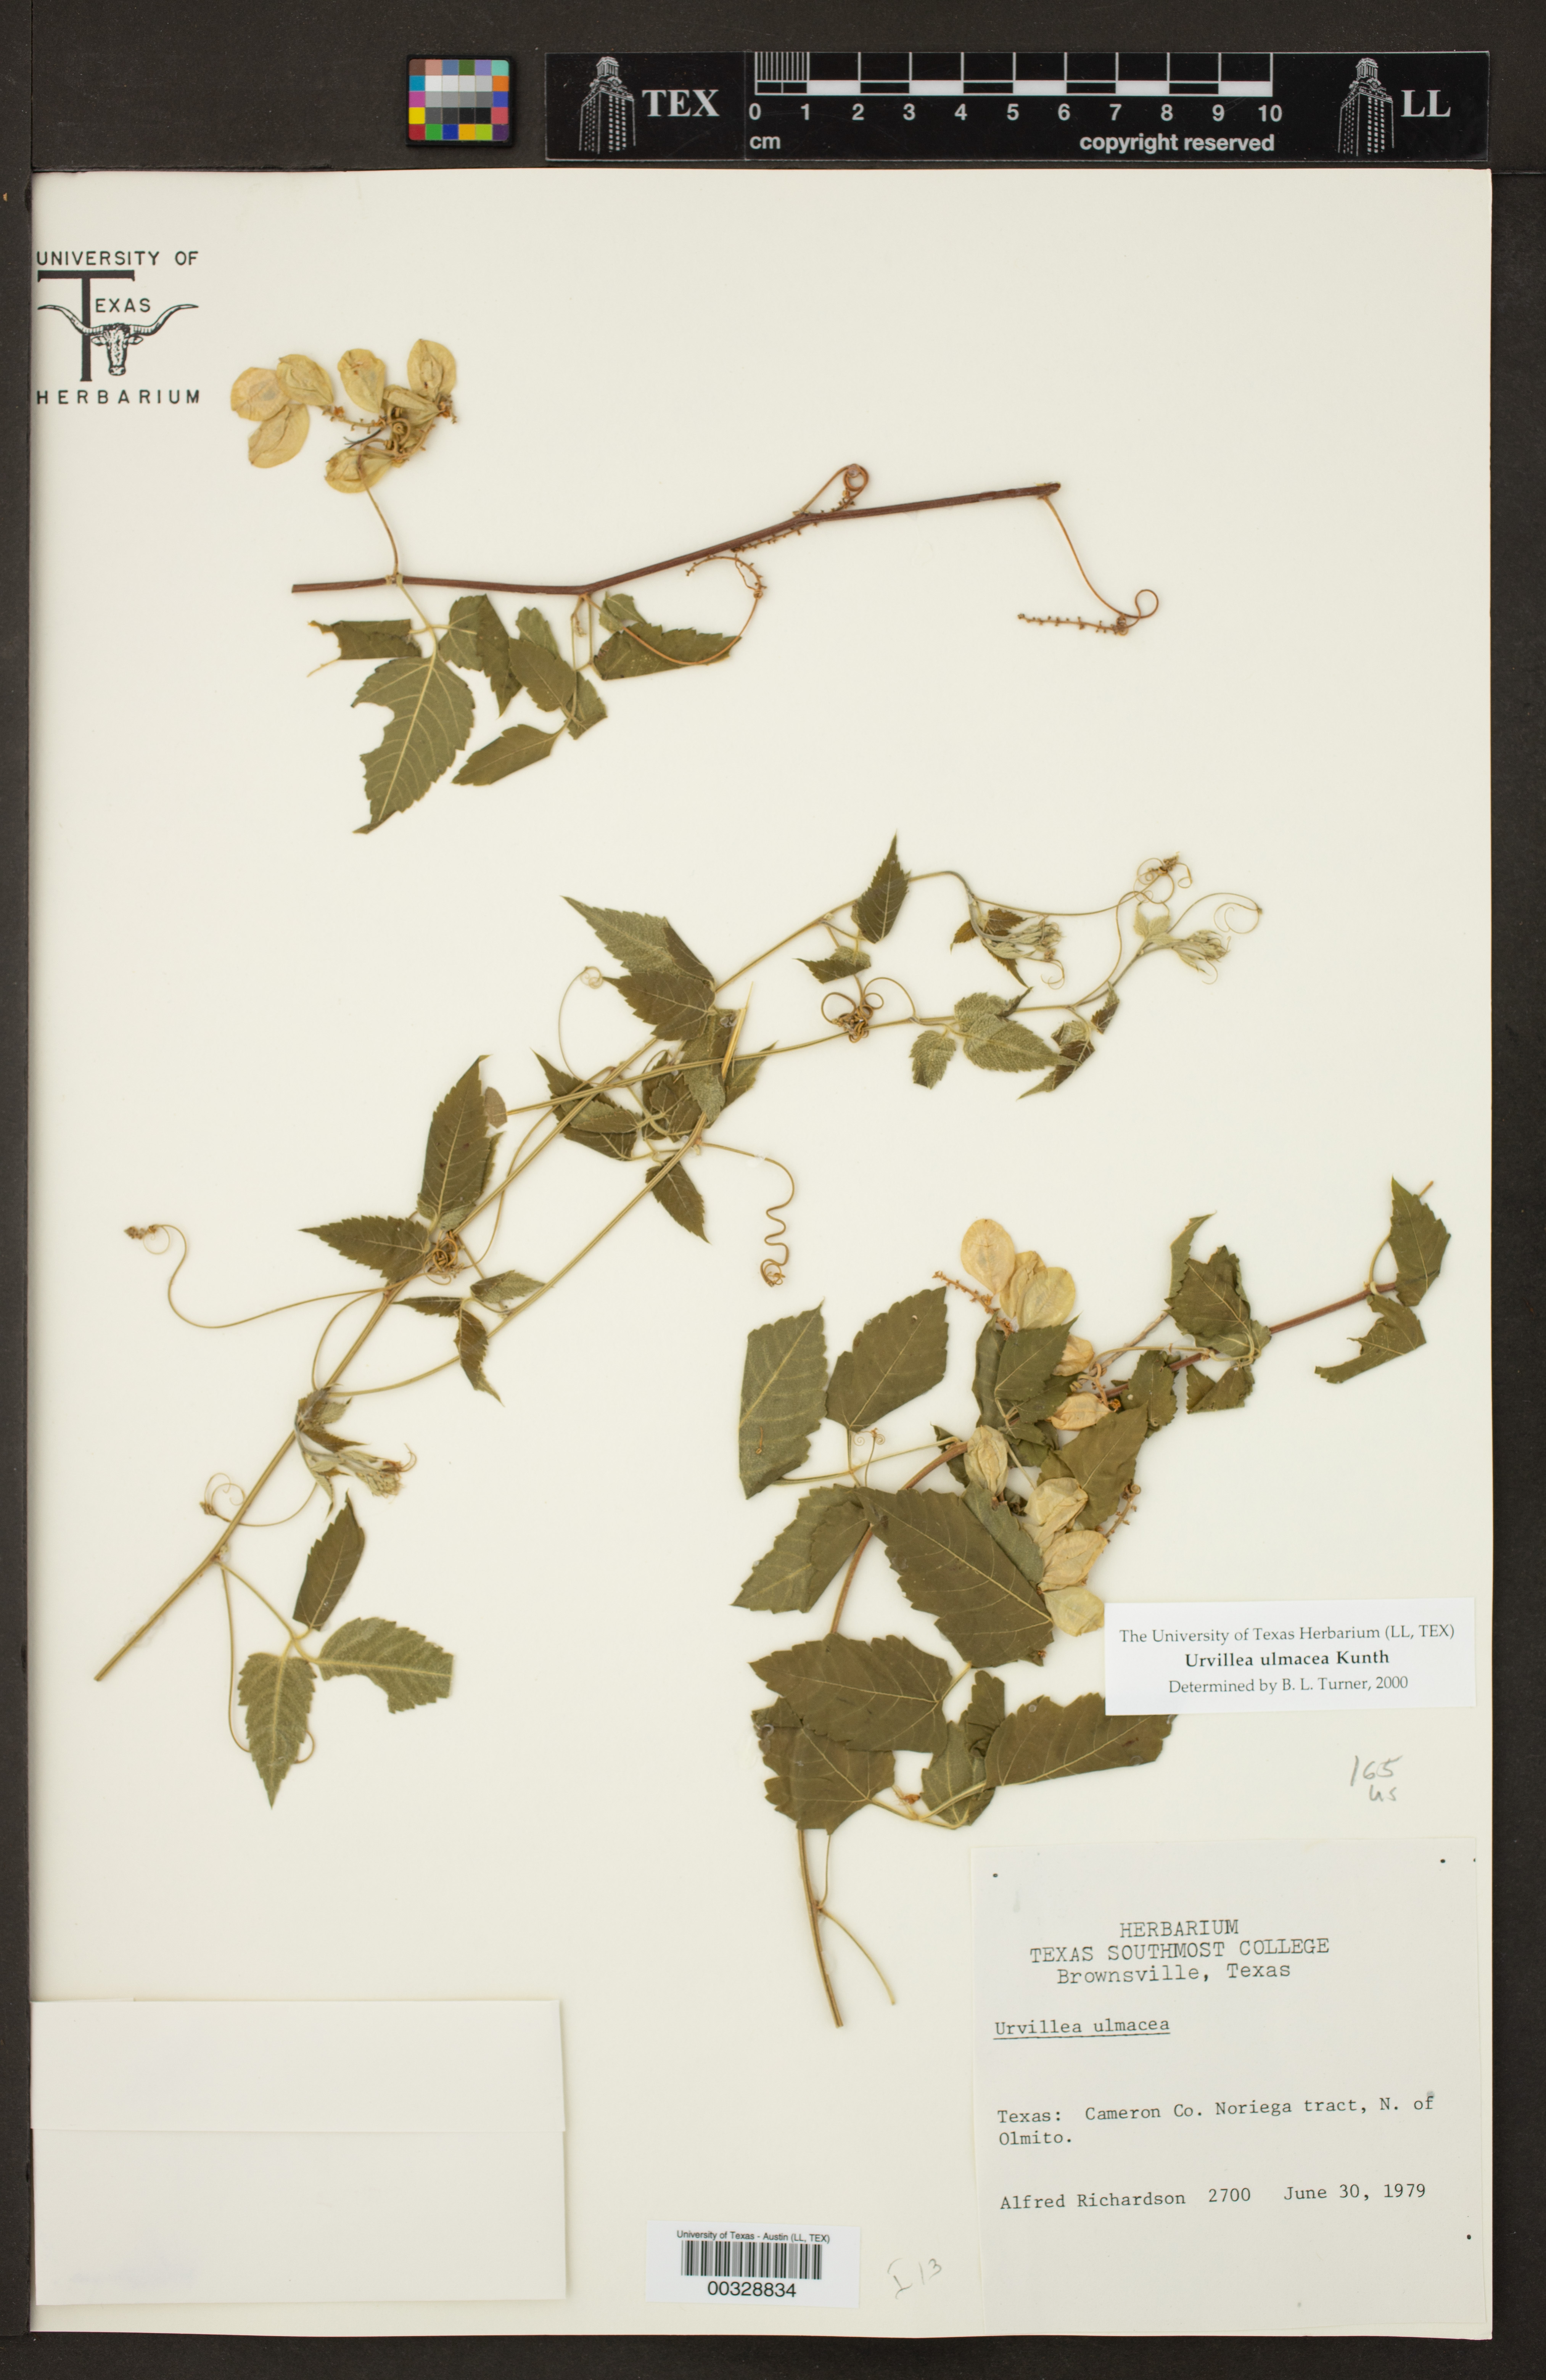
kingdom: Plantae
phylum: Tracheophyta
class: Magnoliopsida
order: Sapindales
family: Sapindaceae
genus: Urvillea
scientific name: Urvillea ulmacea
